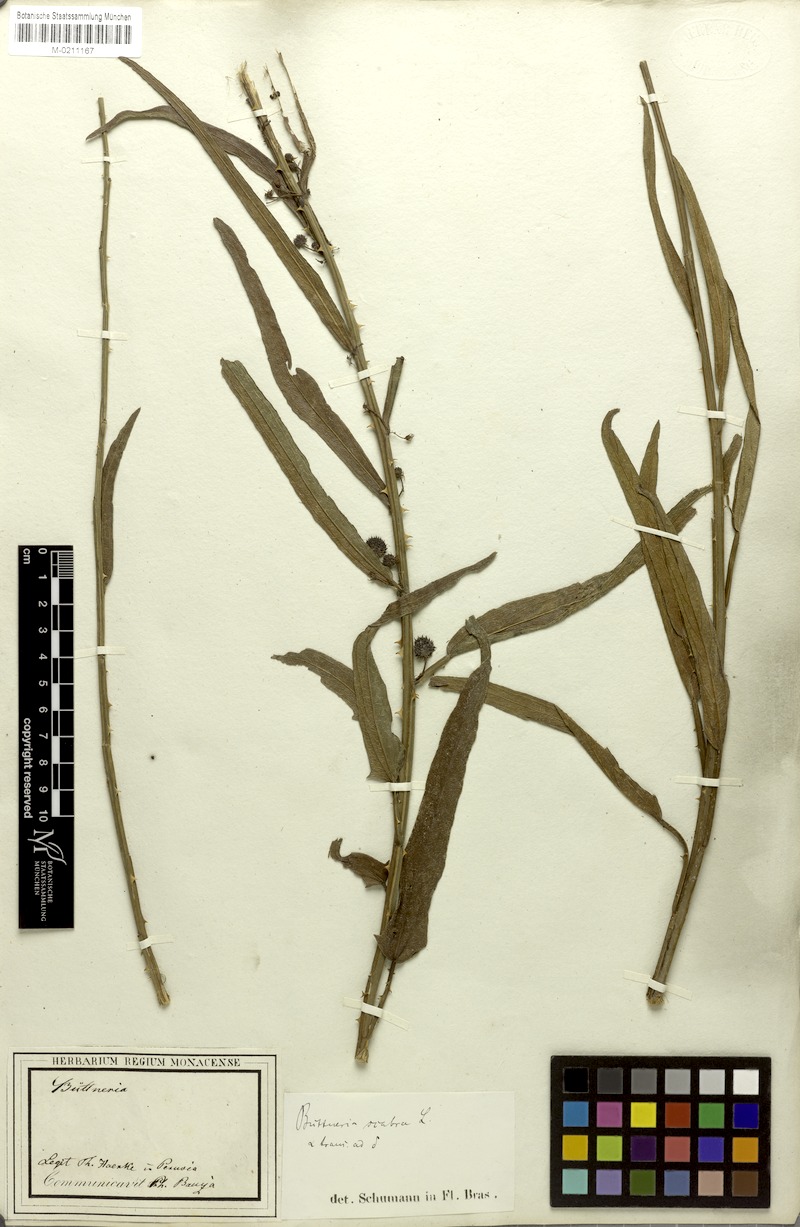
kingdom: Plantae
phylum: Tracheophyta
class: Magnoliopsida
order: Malvales
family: Malvaceae
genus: Byttneria
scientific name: Byttneria scabra
